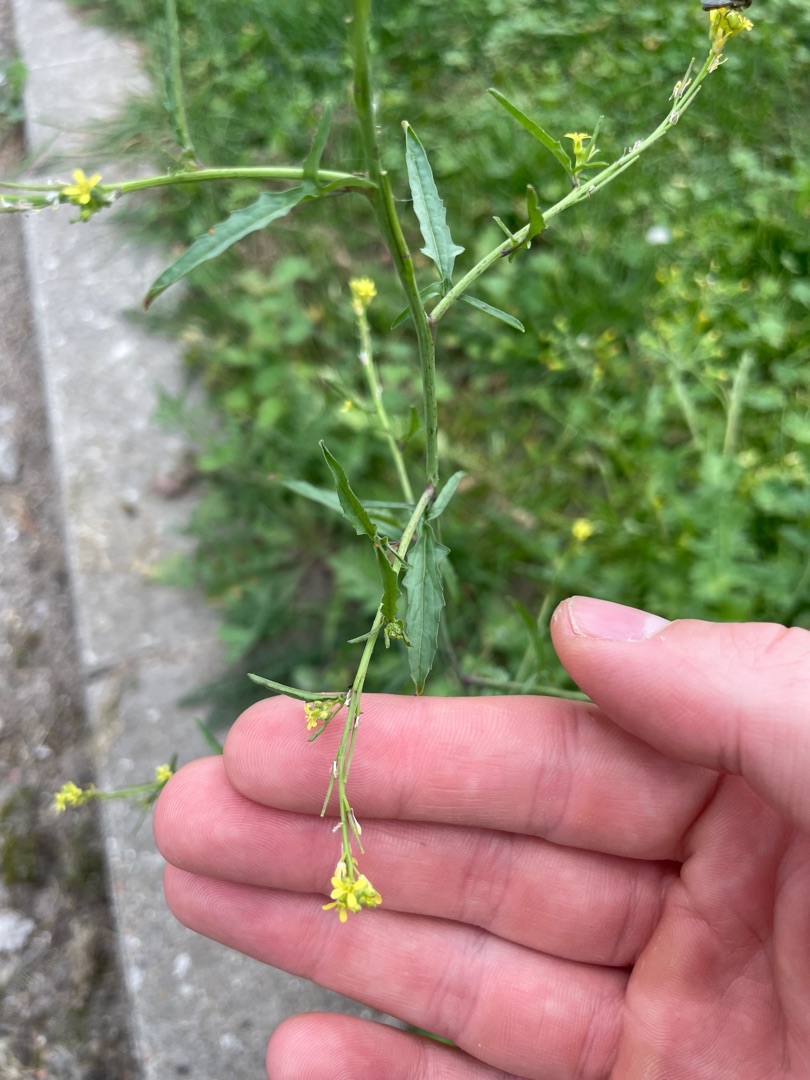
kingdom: Plantae
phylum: Tracheophyta
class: Magnoliopsida
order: Brassicales
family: Brassicaceae
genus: Sisymbrium
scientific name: Sisymbrium officinale
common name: Rank vejsennep
